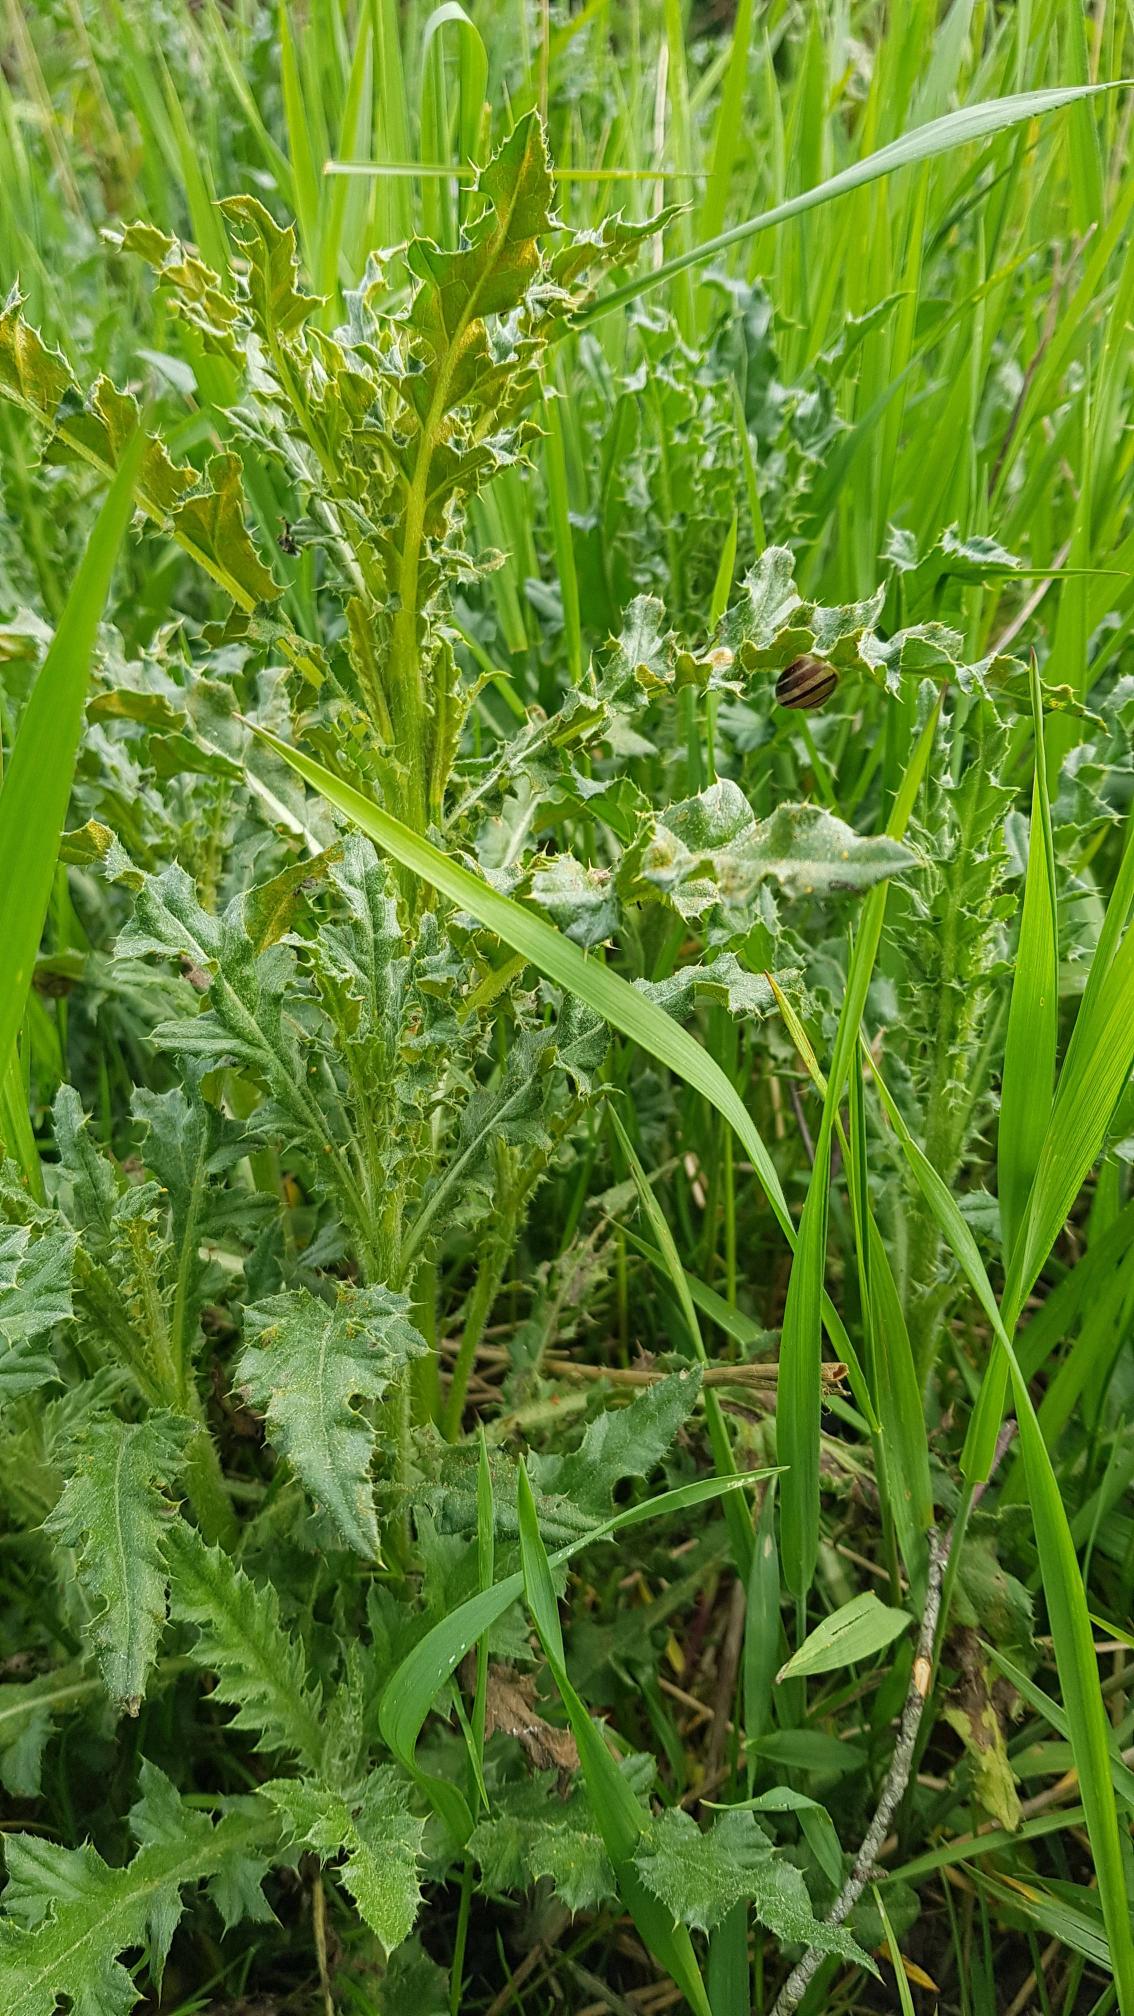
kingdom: Plantae
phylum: Tracheophyta
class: Magnoliopsida
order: Asterales
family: Asteraceae
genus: Cirsium
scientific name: Cirsium arvense
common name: Ager-tidsel
